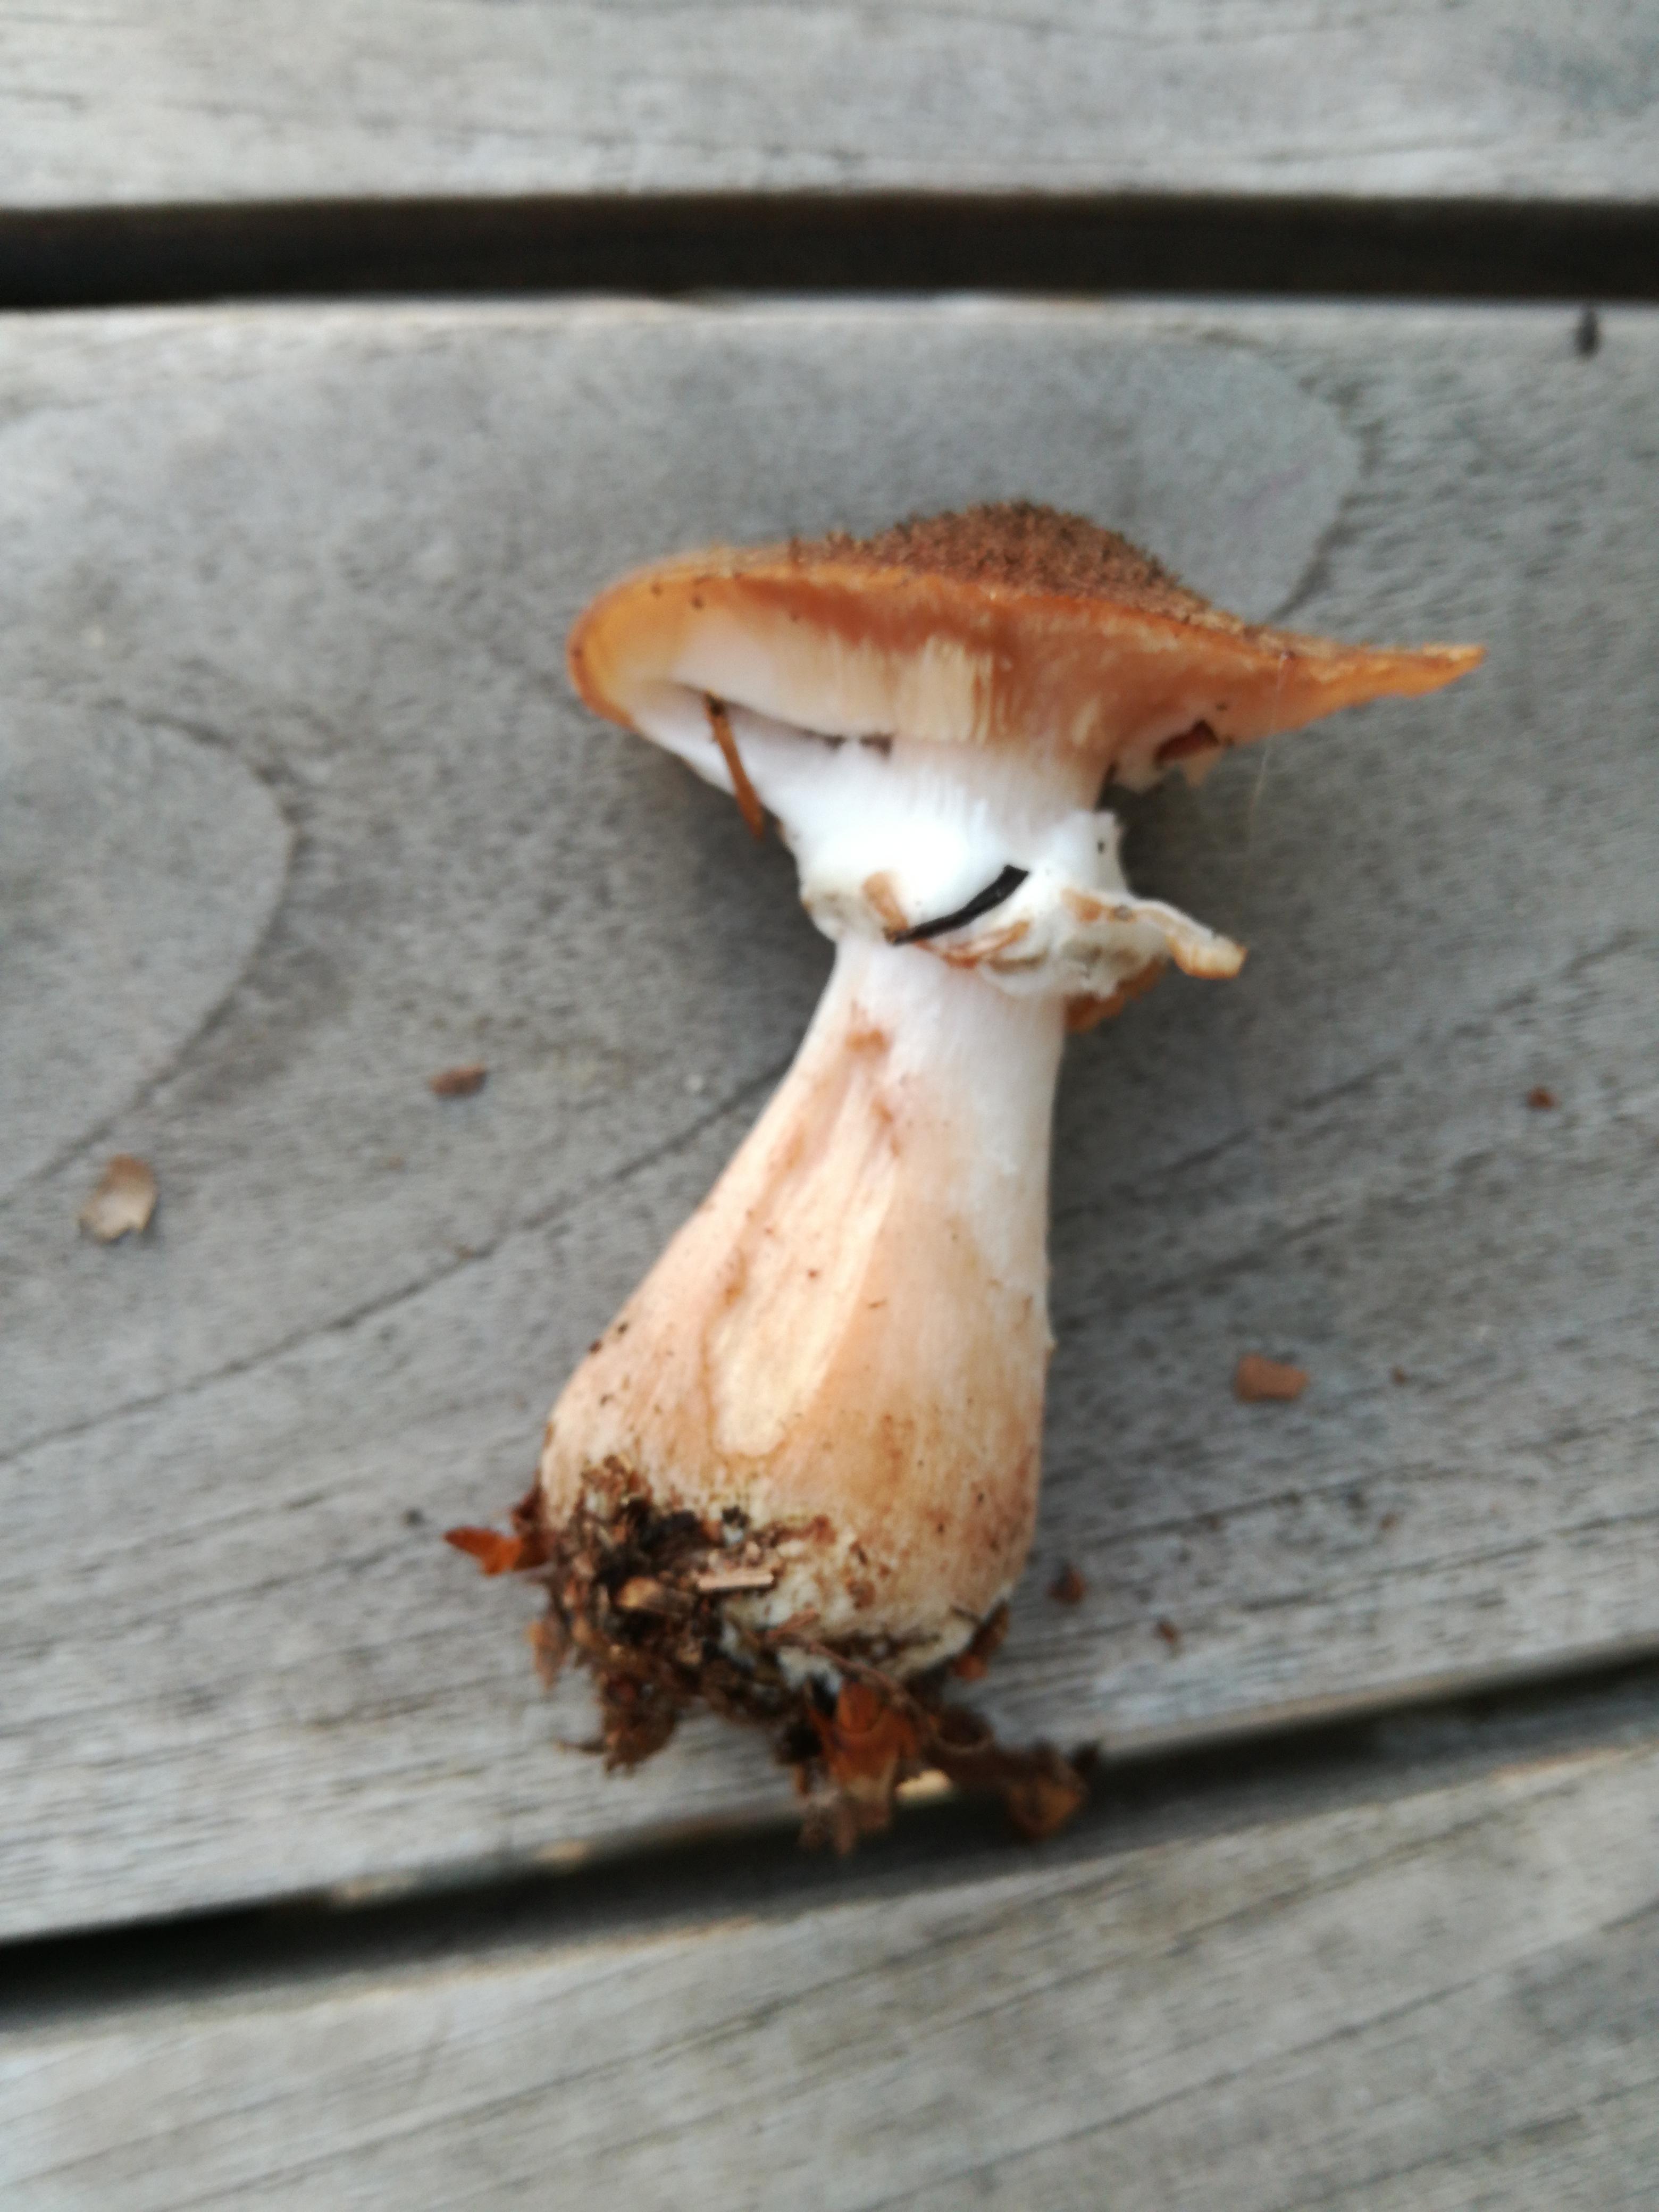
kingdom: Fungi
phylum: Basidiomycota
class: Agaricomycetes
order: Agaricales
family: Physalacriaceae
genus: Armillaria
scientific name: Armillaria lutea
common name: køllestokket honningsvamp
